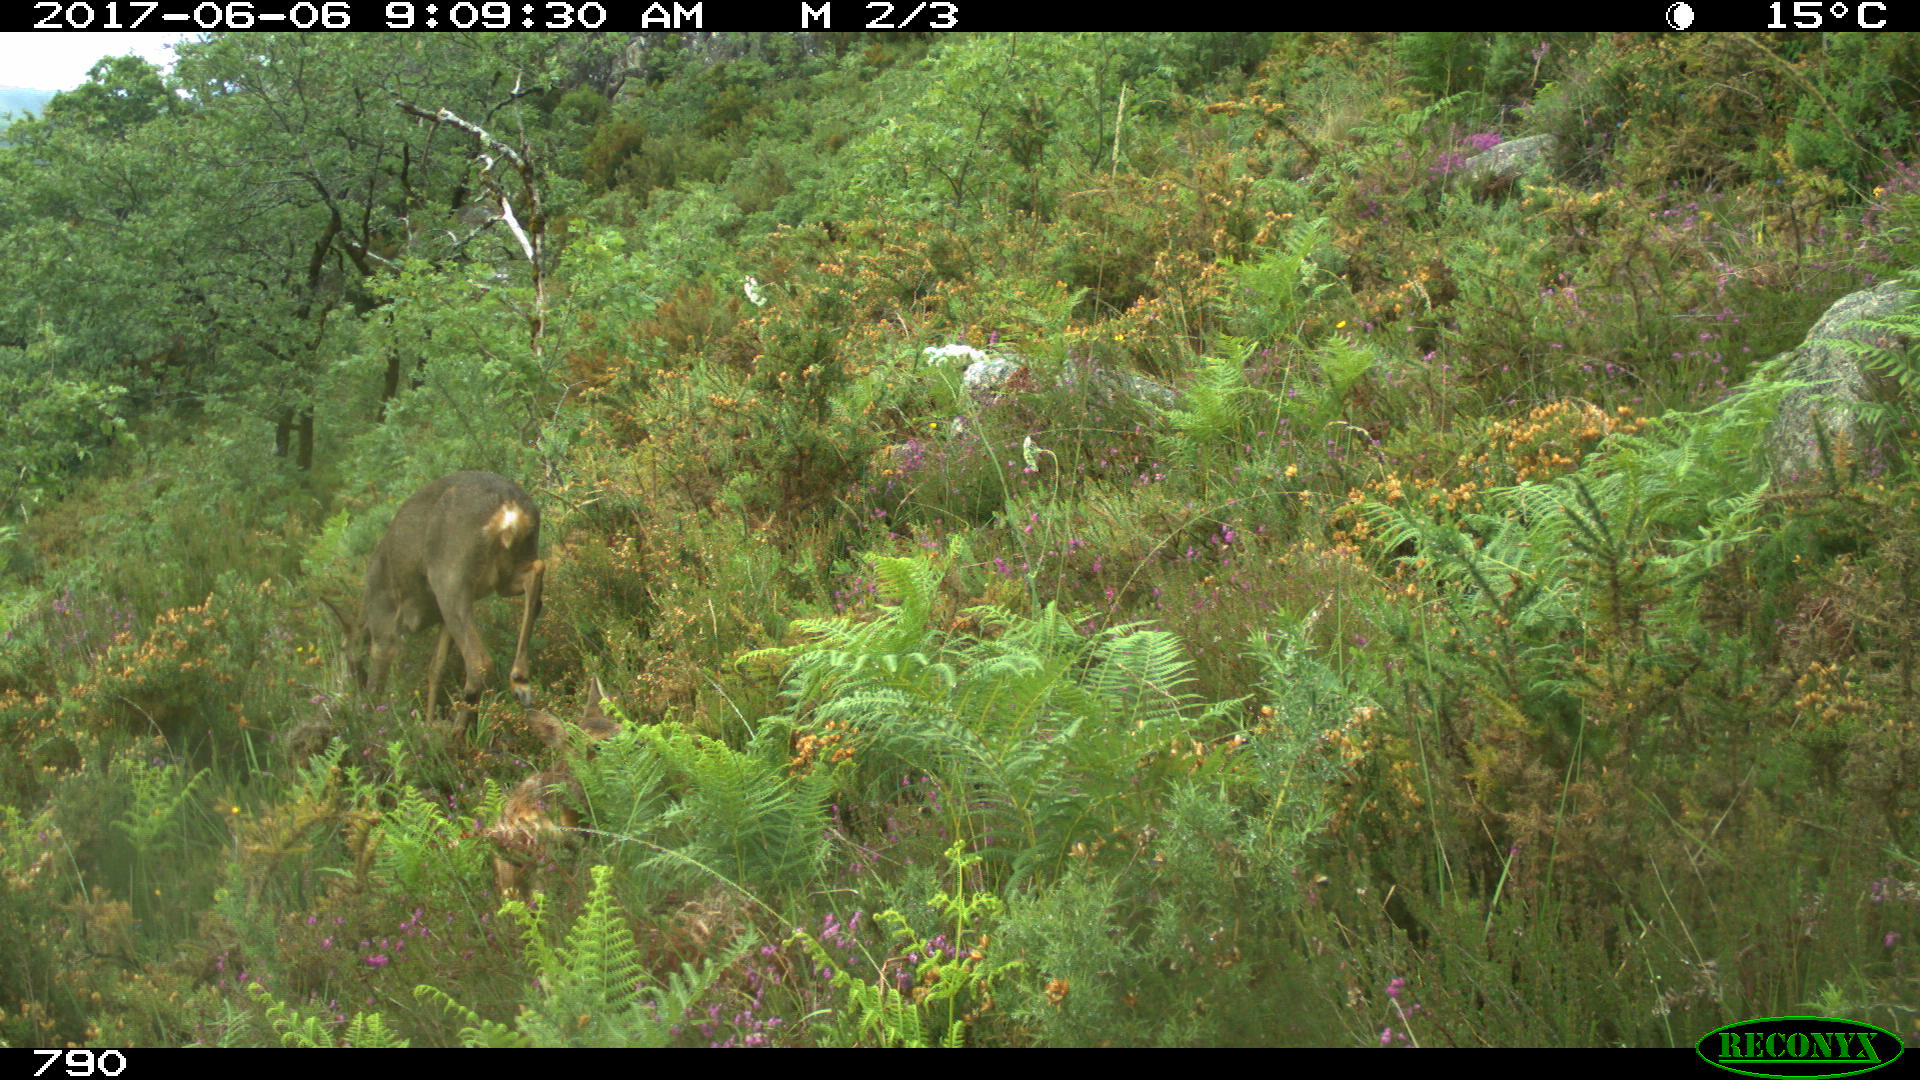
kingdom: Animalia
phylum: Chordata
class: Mammalia
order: Artiodactyla
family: Cervidae
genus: Capreolus
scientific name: Capreolus capreolus
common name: Western roe deer
